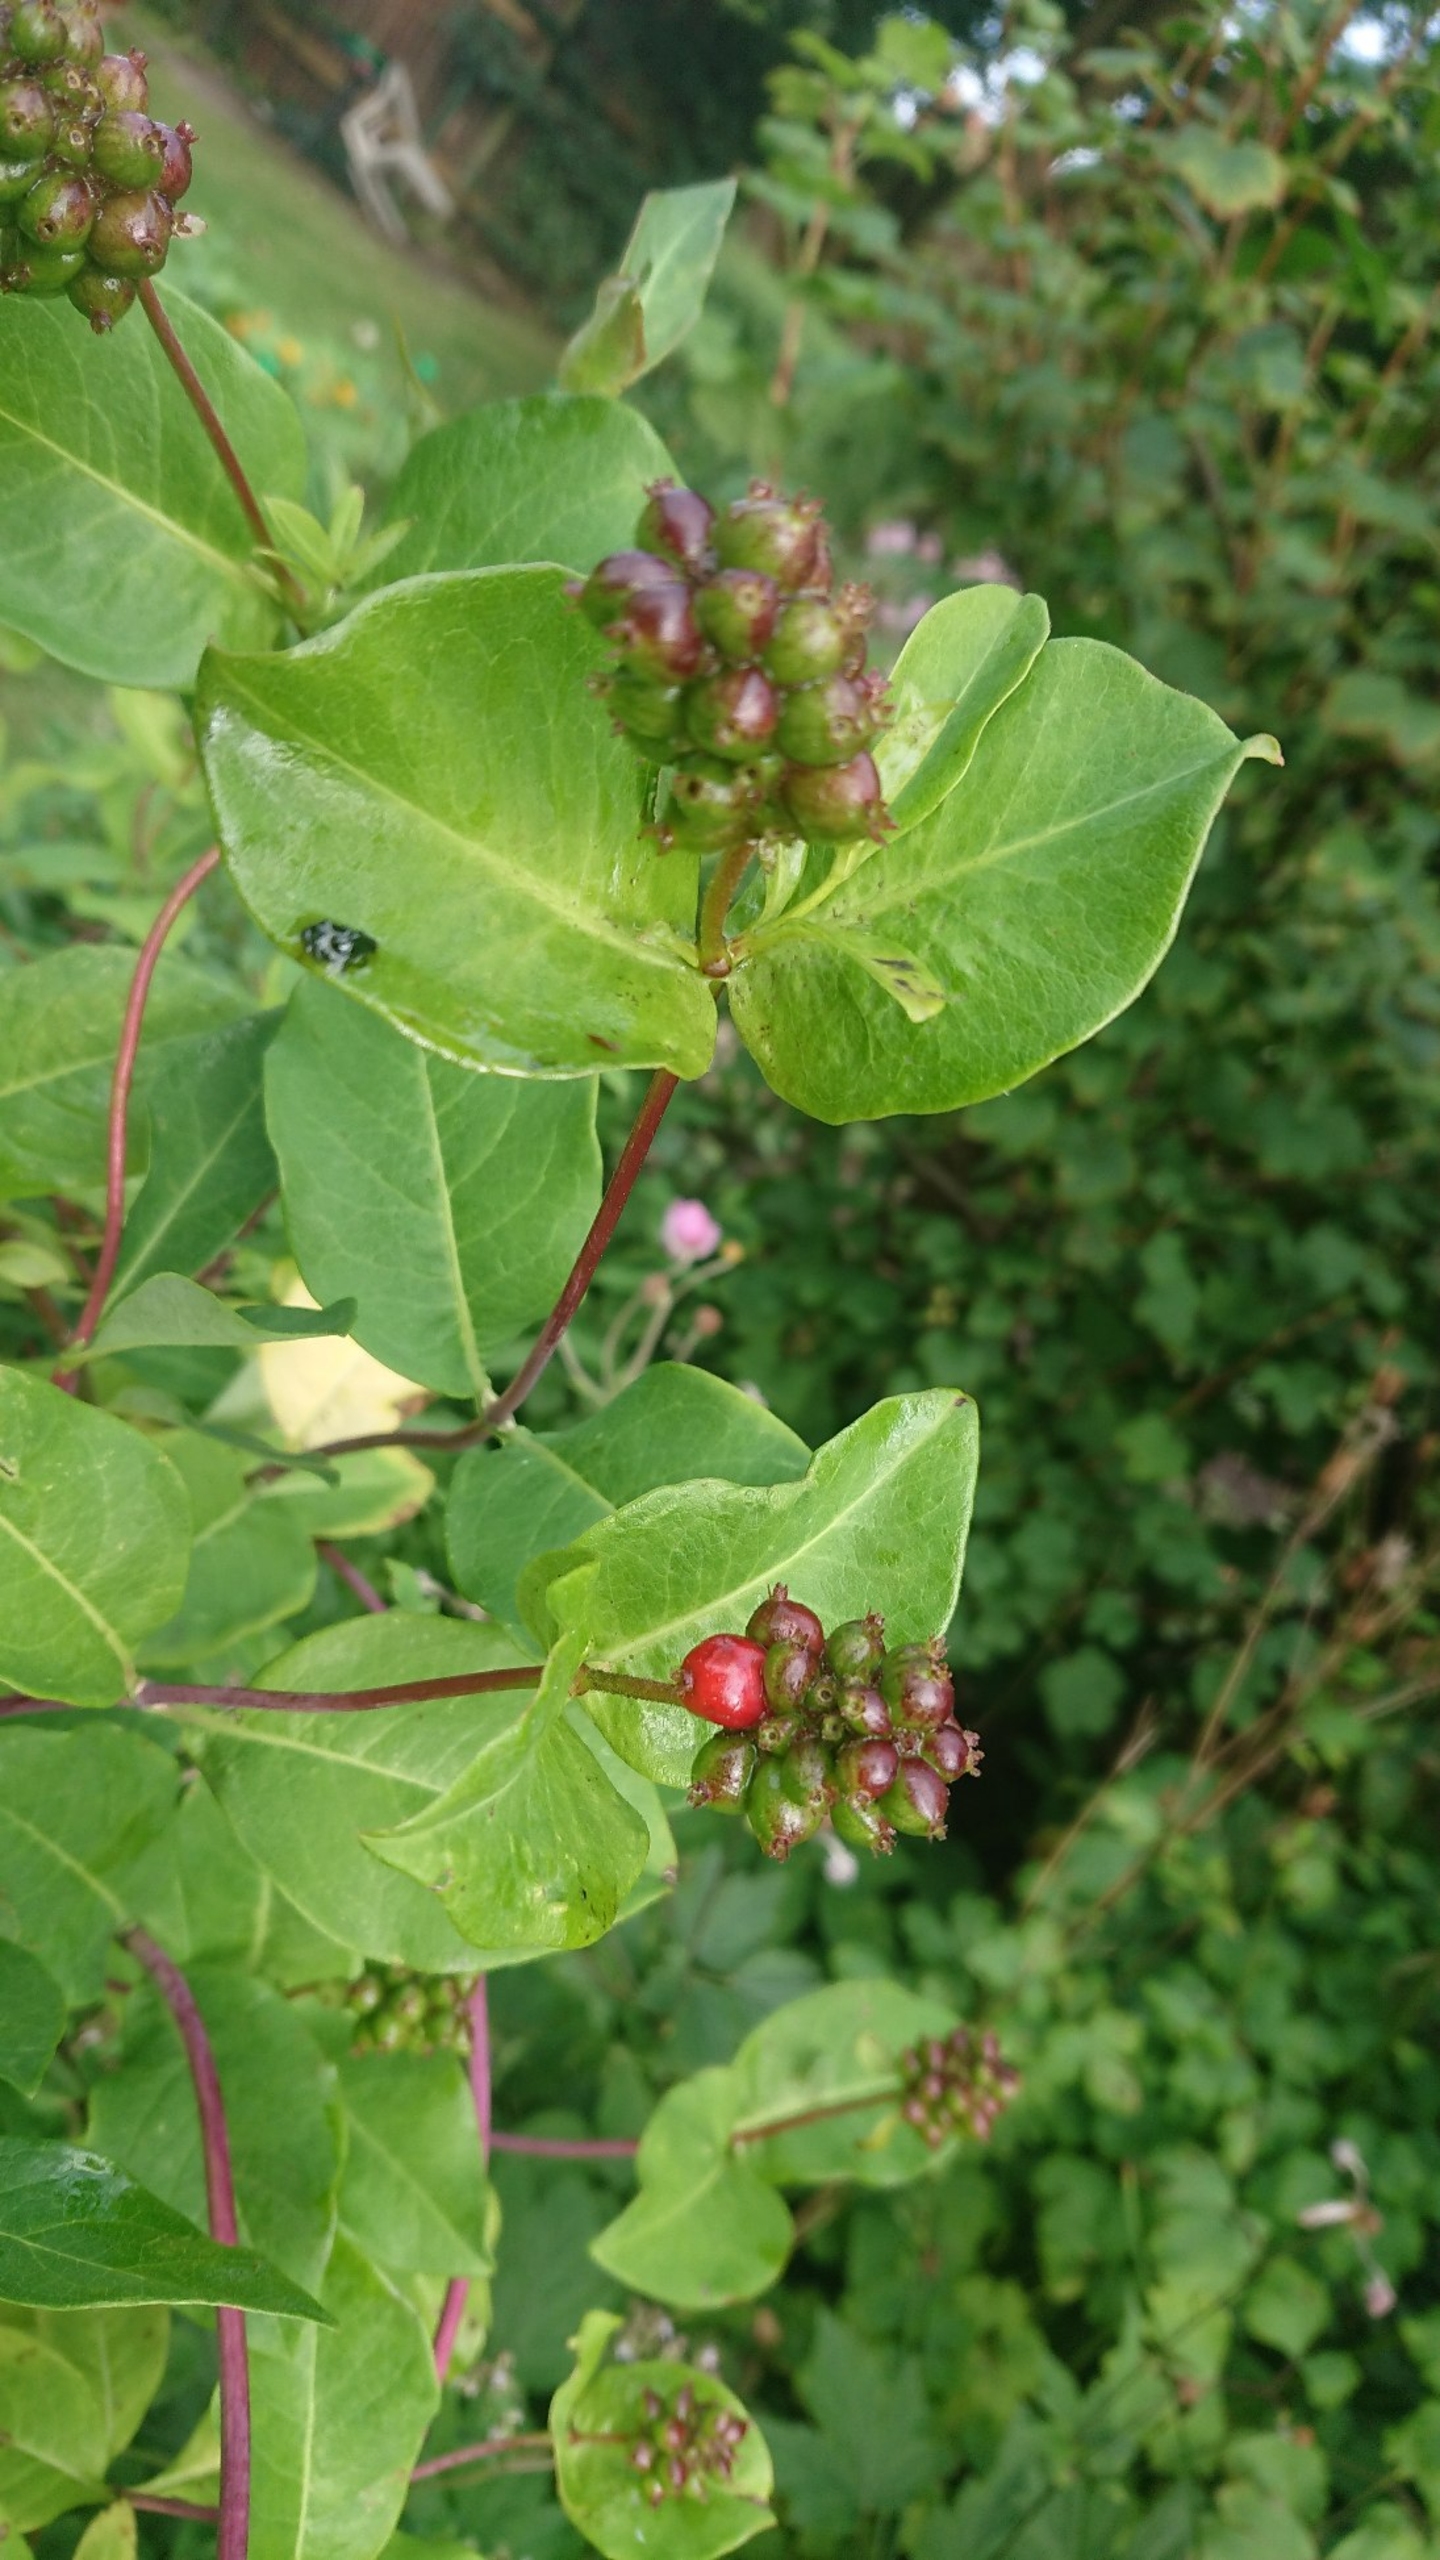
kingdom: Plantae
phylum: Tracheophyta
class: Magnoliopsida
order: Dipsacales
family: Caprifoliaceae
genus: Lonicera
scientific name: Lonicera periclymenum
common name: Almindelig gedeblad
